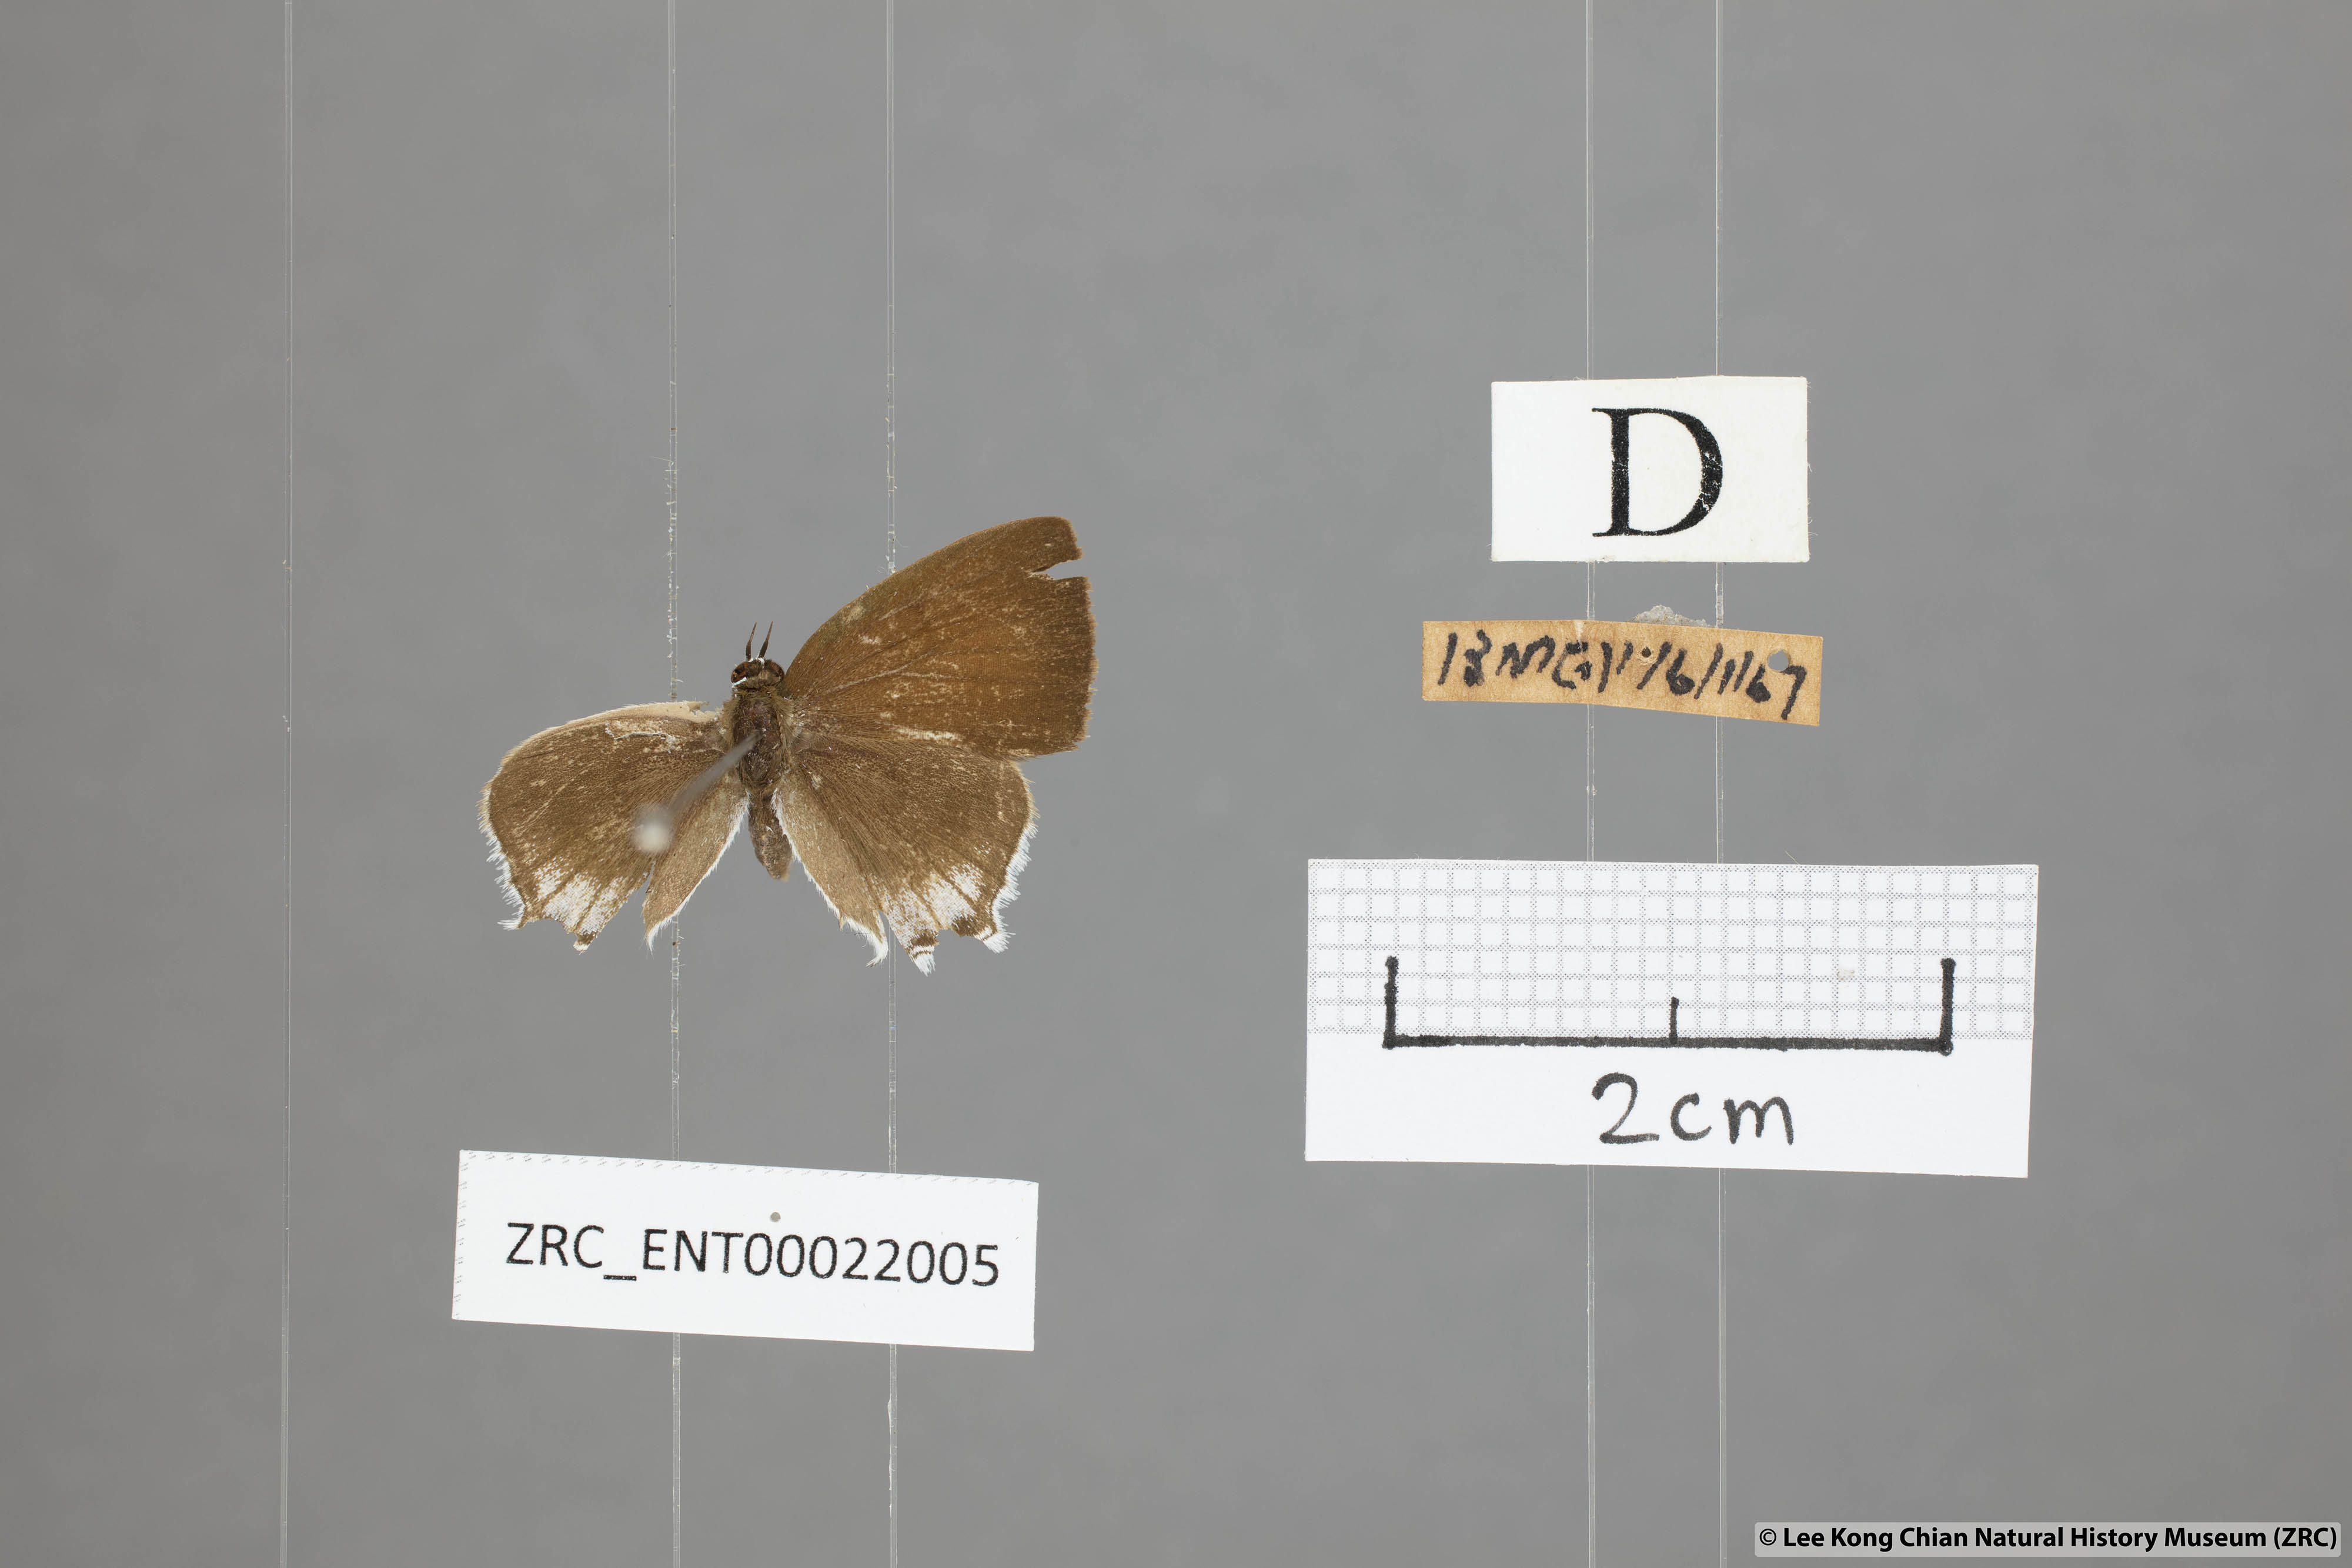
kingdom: Animalia
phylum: Arthropoda
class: Insecta
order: Lepidoptera
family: Lycaenidae
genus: Sinthusa
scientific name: Sinthusa malika
